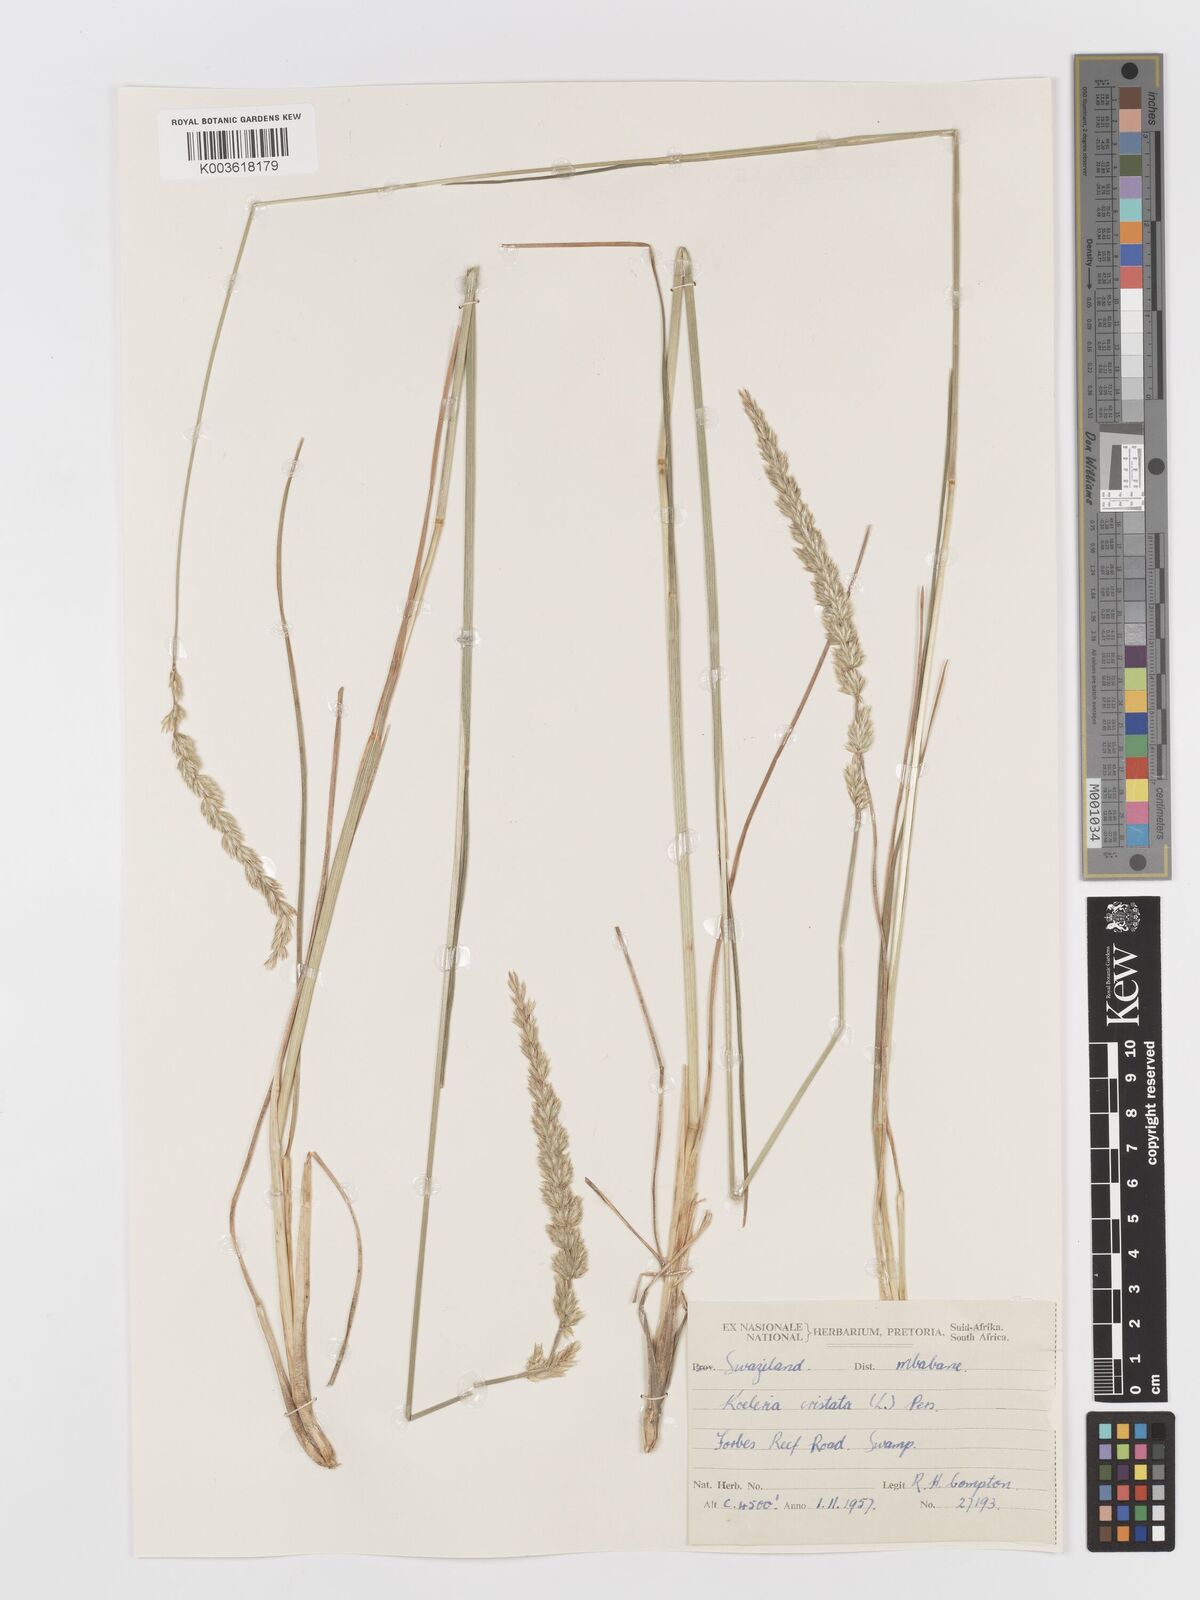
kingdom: Plantae
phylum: Tracheophyta
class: Liliopsida
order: Poales
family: Poaceae
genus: Koeleria
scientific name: Koeleria capensis
